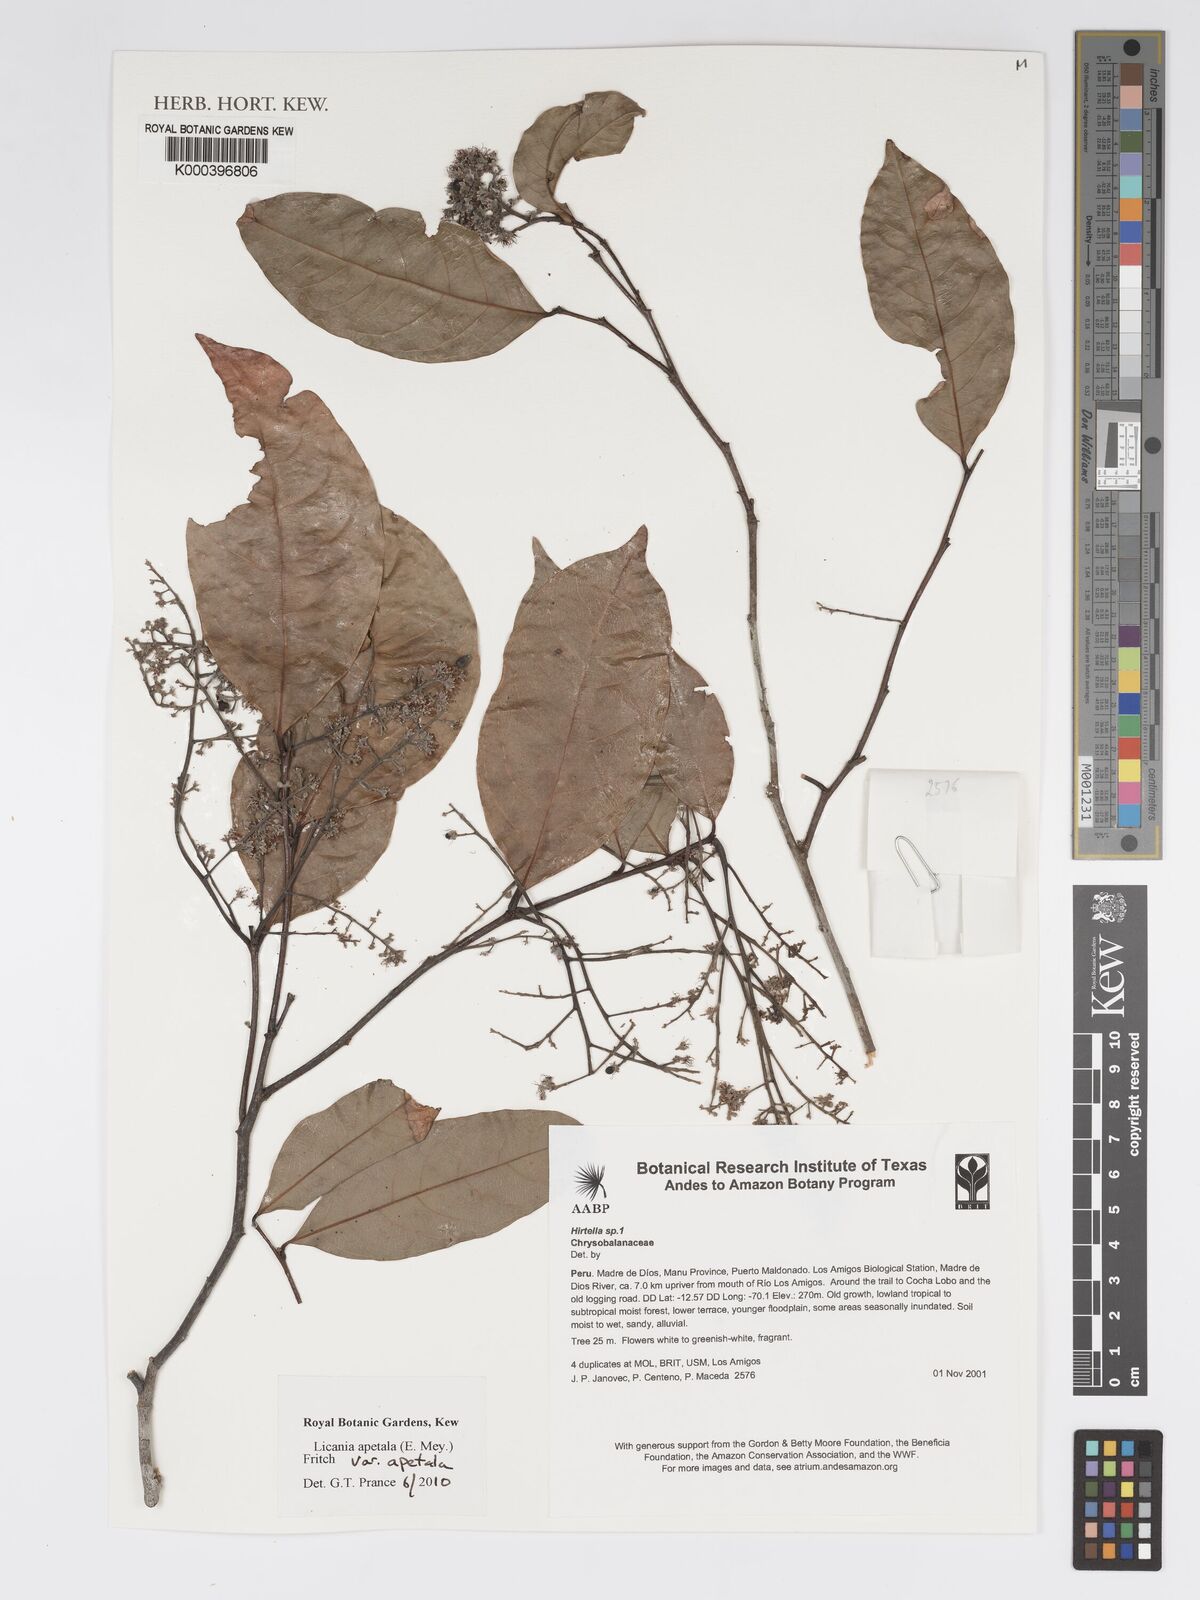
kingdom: Plantae
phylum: Tracheophyta
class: Magnoliopsida
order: Malpighiales
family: Chrysobalanaceae
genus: Leptobalanus
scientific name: Leptobalanus apetalus
